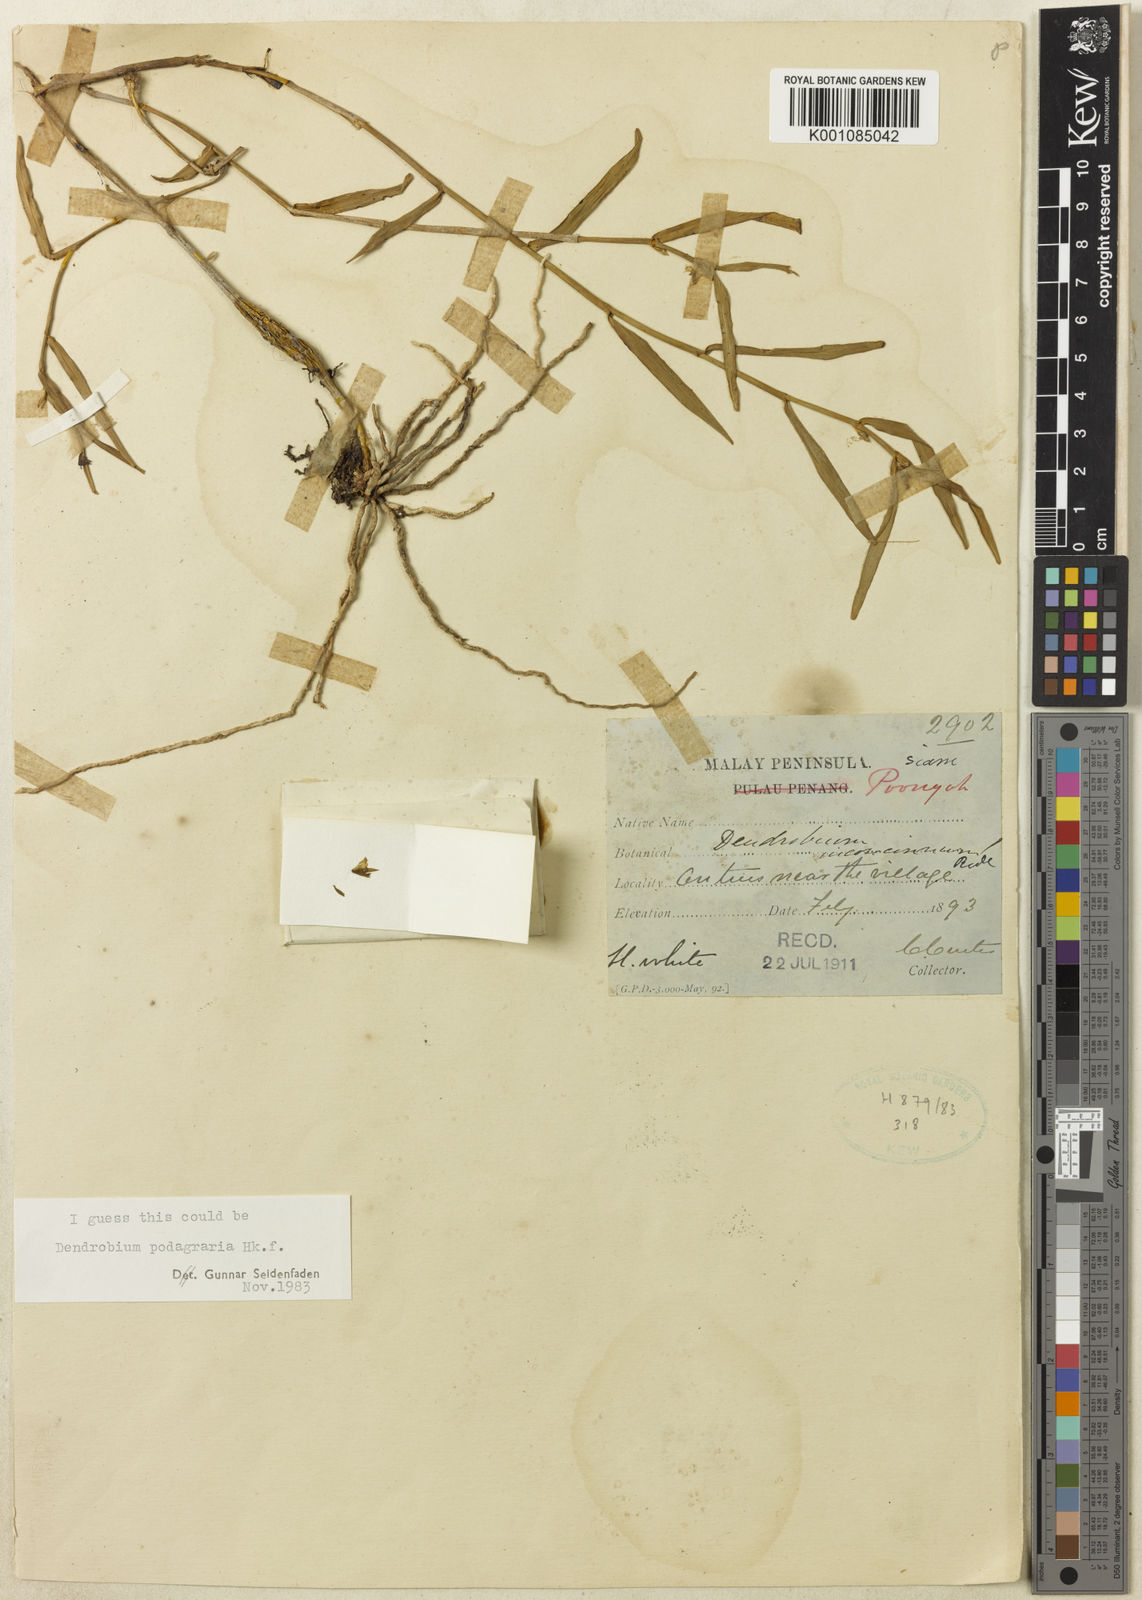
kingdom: Plantae
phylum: Tracheophyta
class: Liliopsida
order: Asparagales
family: Orchidaceae
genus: Dendrobium
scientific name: Dendrobium angulatum
